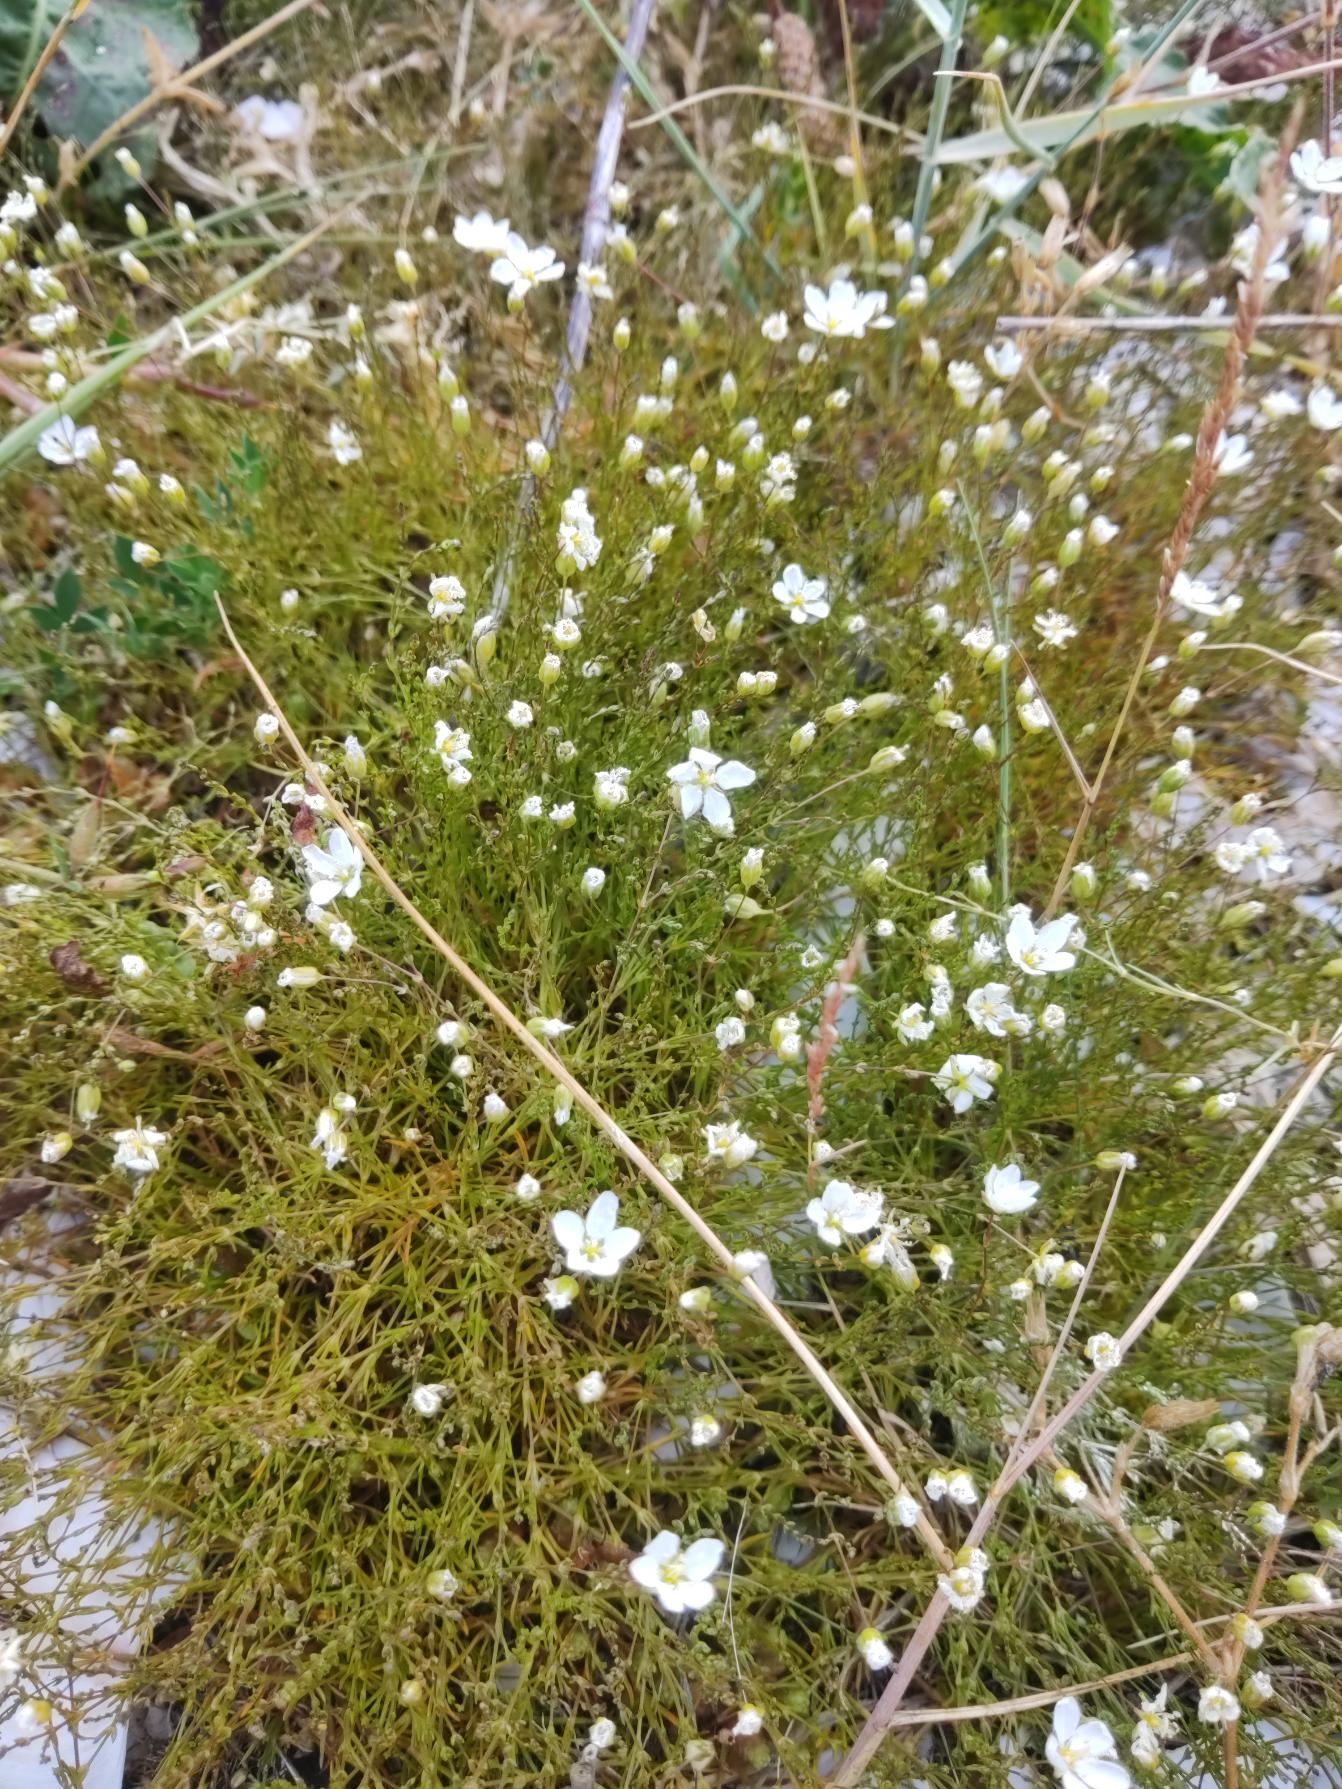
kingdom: Plantae
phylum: Tracheophyta
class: Magnoliopsida
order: Caryophyllales
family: Caryophyllaceae
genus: Sagina
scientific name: Sagina nodosa
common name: Knude-firling
